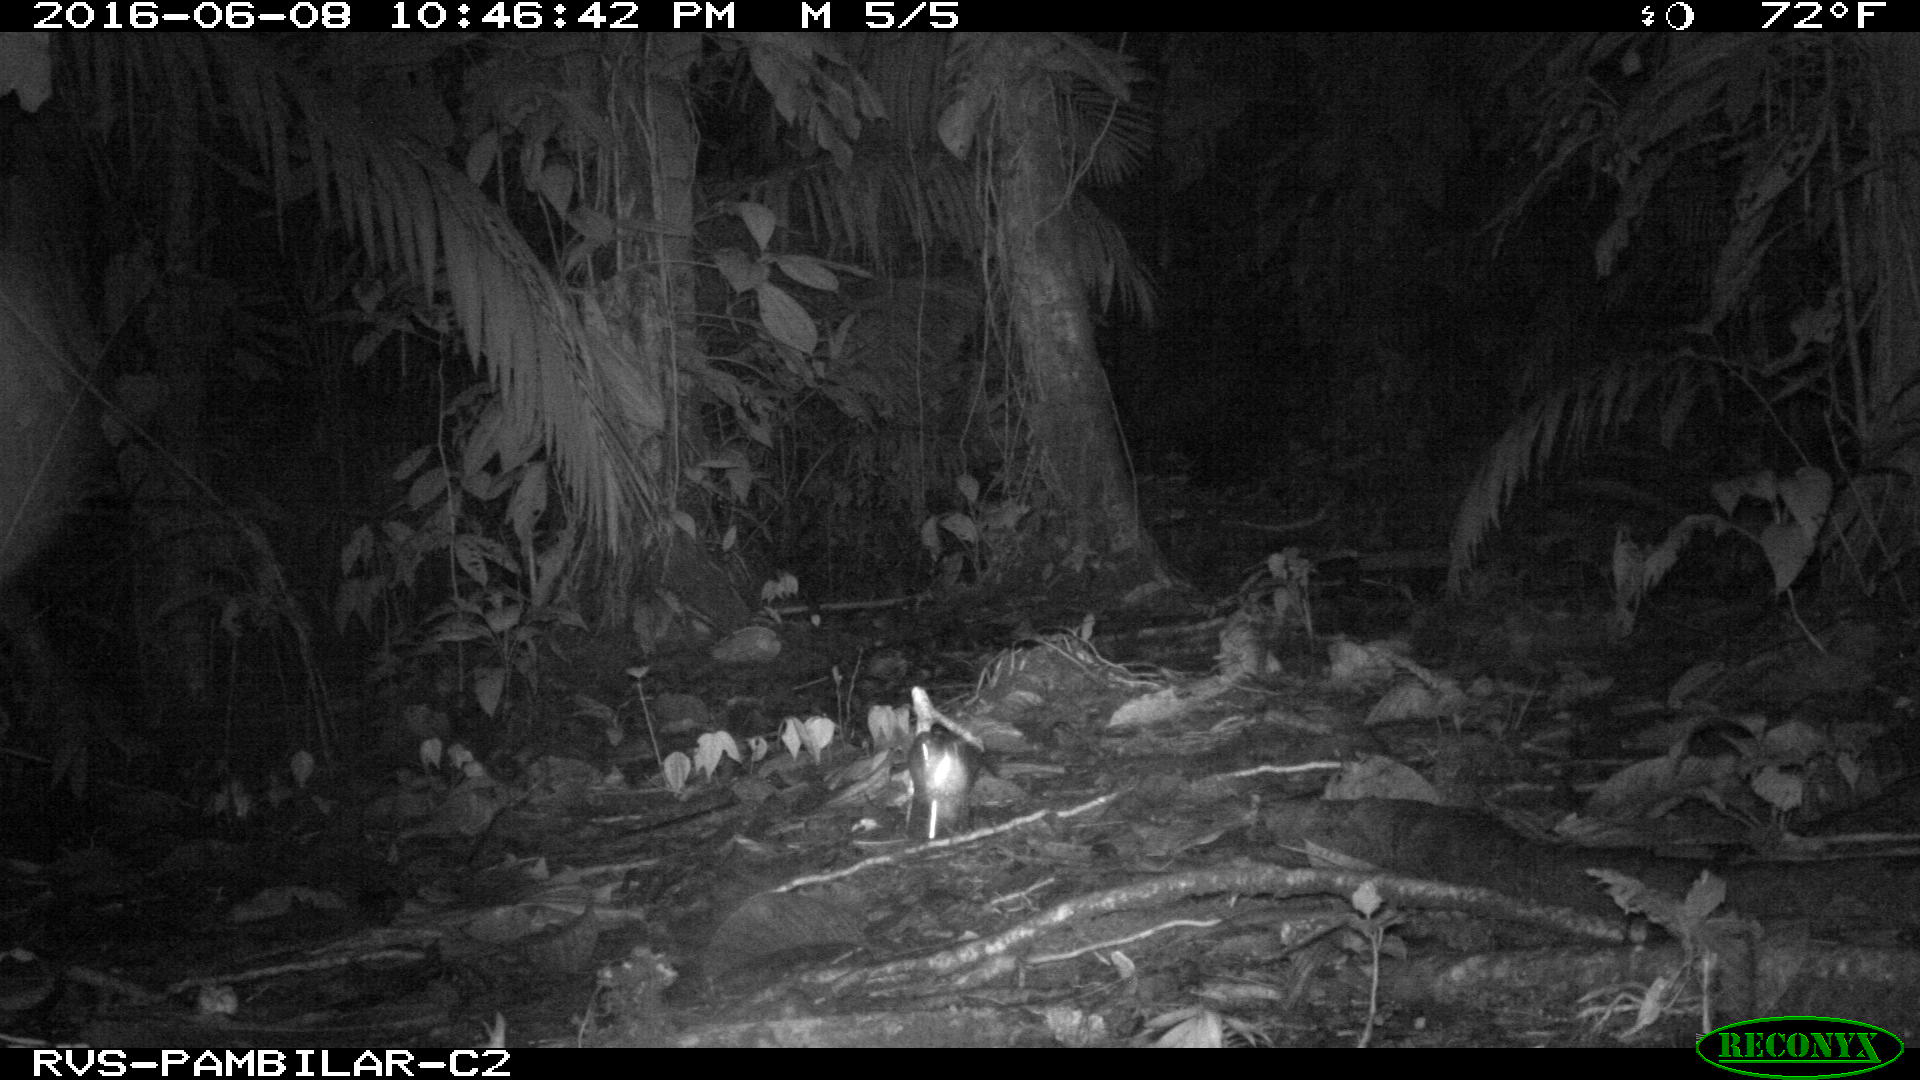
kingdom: Animalia
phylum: Chordata
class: Mammalia
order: Rodentia
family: Cuniculidae
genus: Cuniculus
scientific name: Cuniculus paca
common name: Lowland paca
